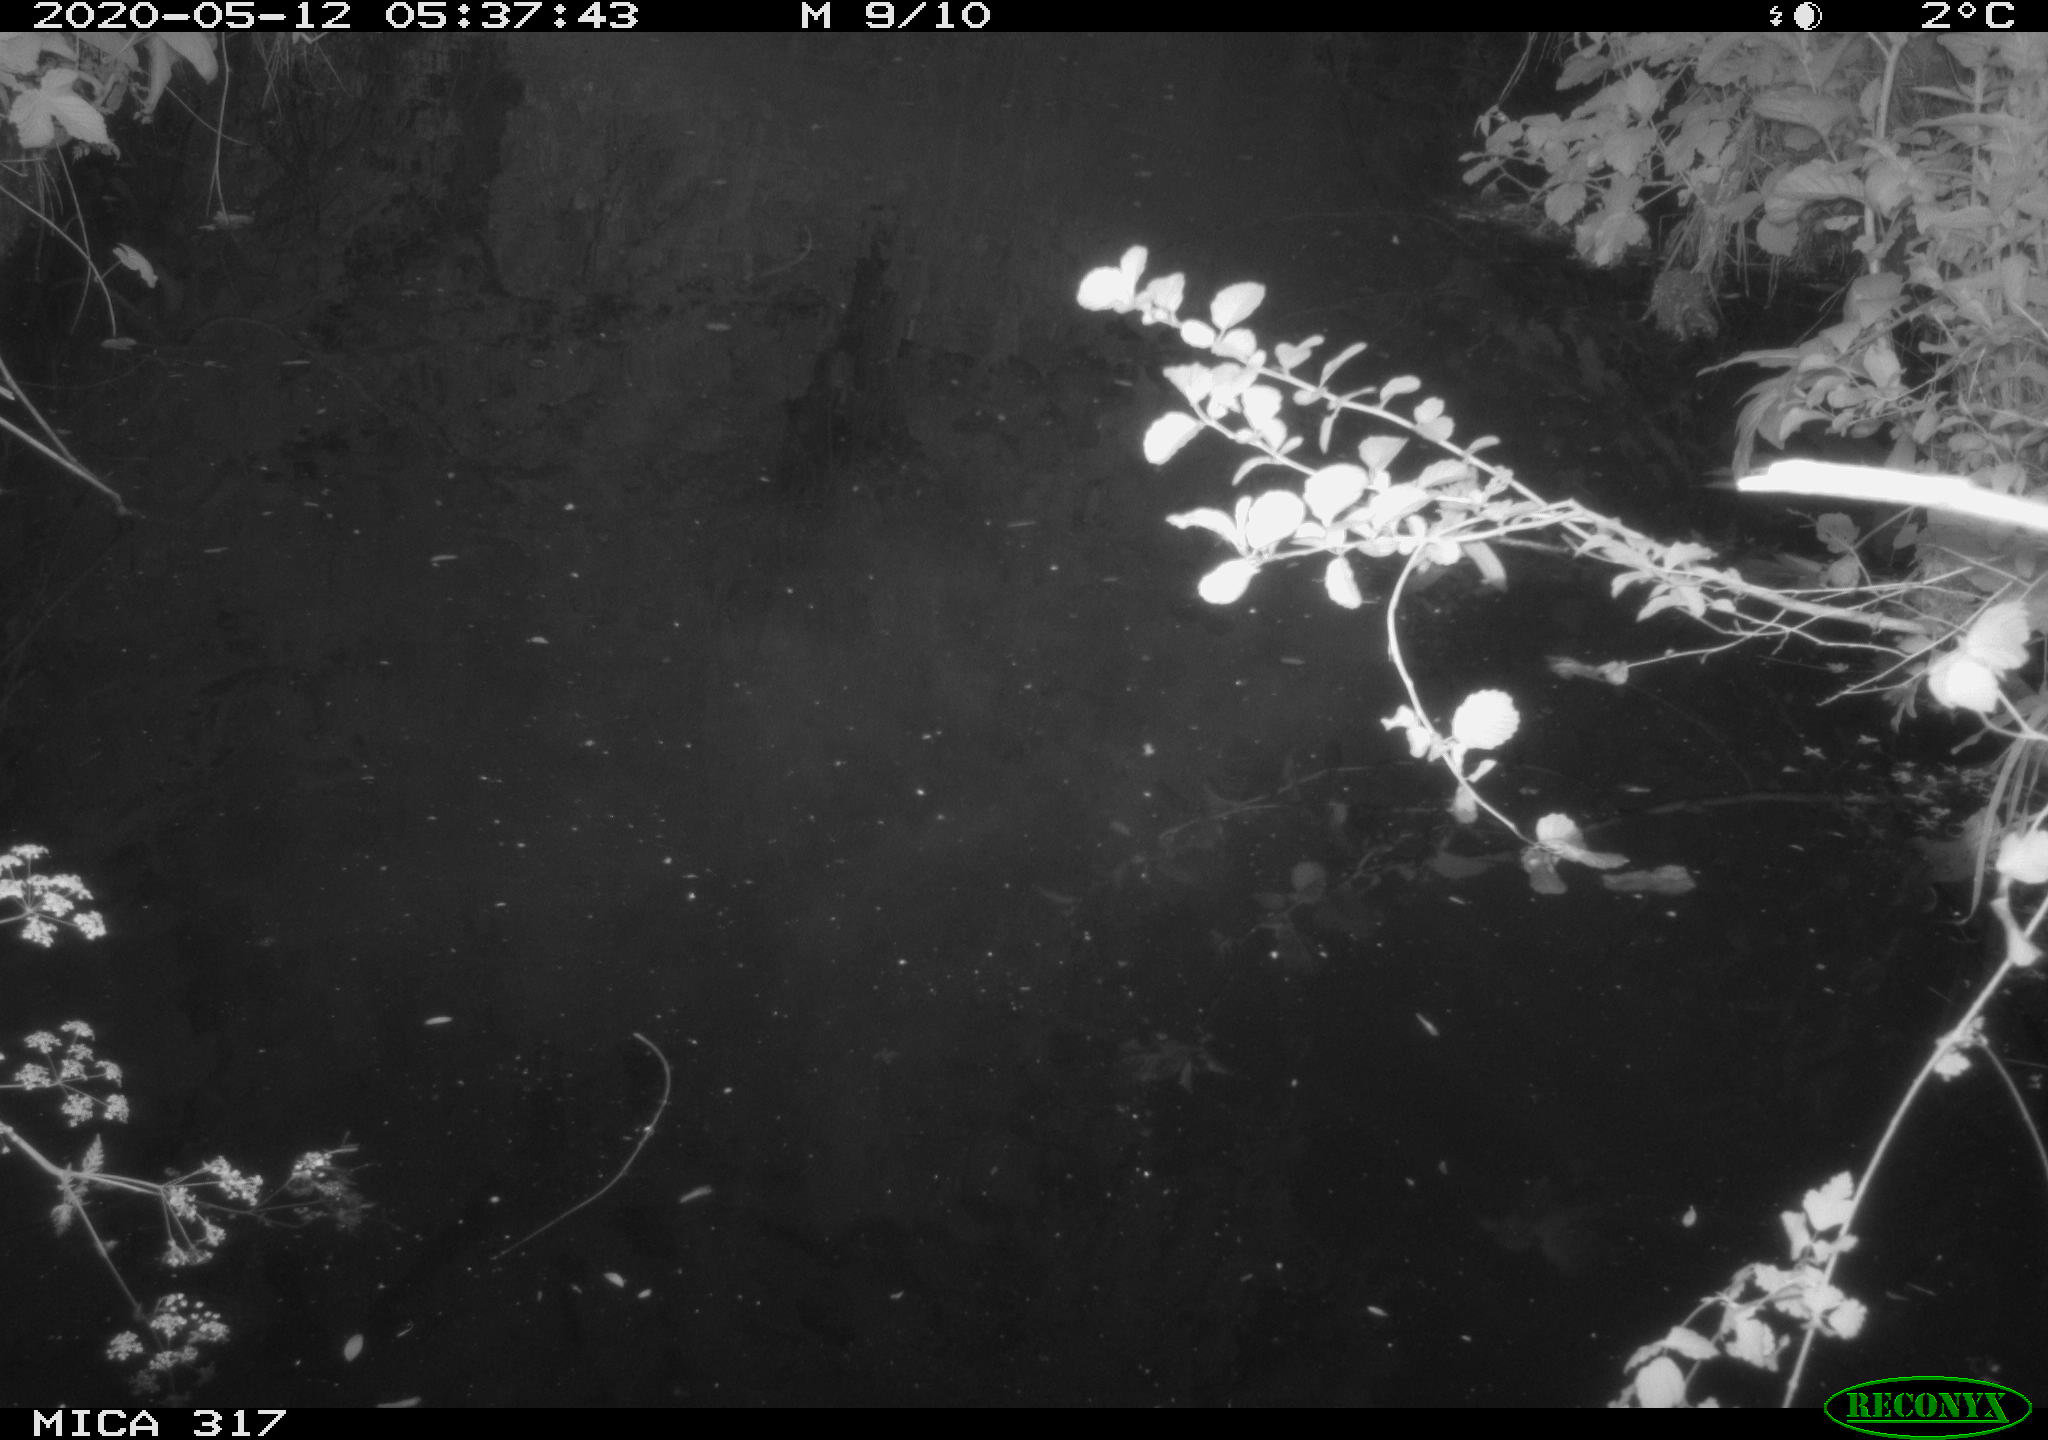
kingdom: Animalia
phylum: Chordata
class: Aves
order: Anseriformes
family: Anatidae
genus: Anas
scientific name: Anas platyrhynchos
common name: Mallard
